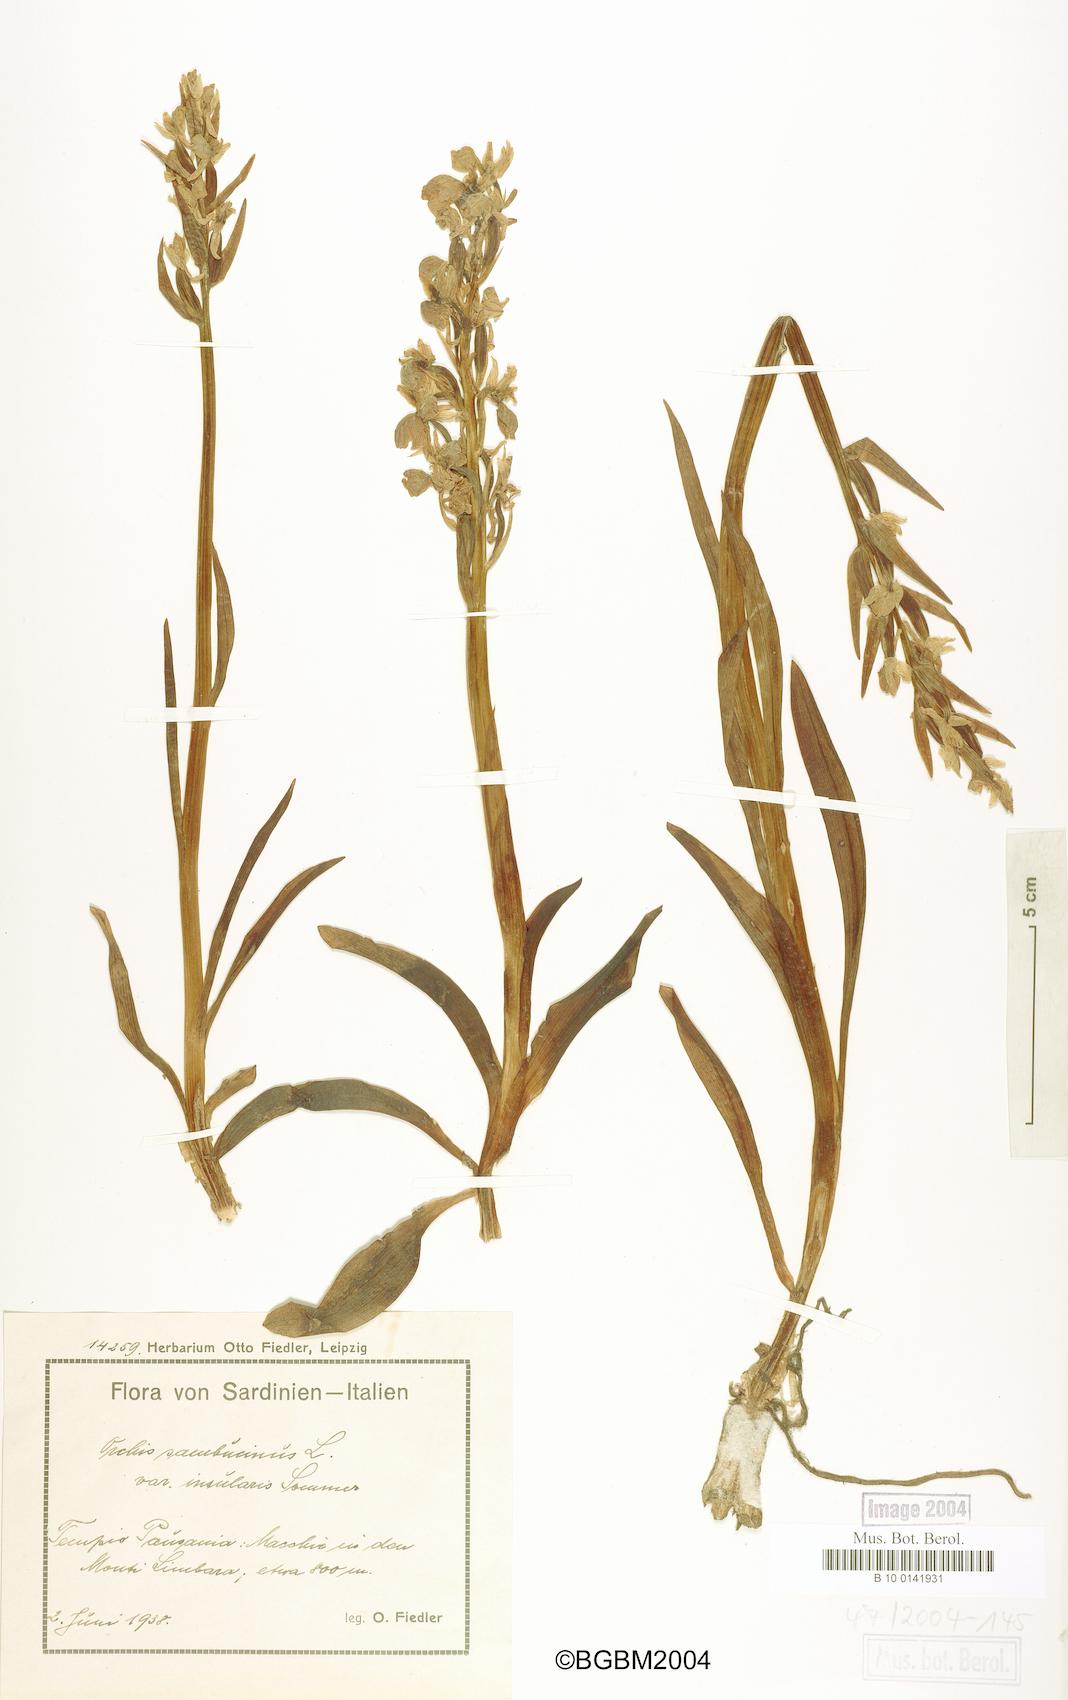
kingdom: Plantae
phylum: Tracheophyta
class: Liliopsida
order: Asparagales
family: Orchidaceae
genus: Dactylorhiza
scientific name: Dactylorhiza insularis
